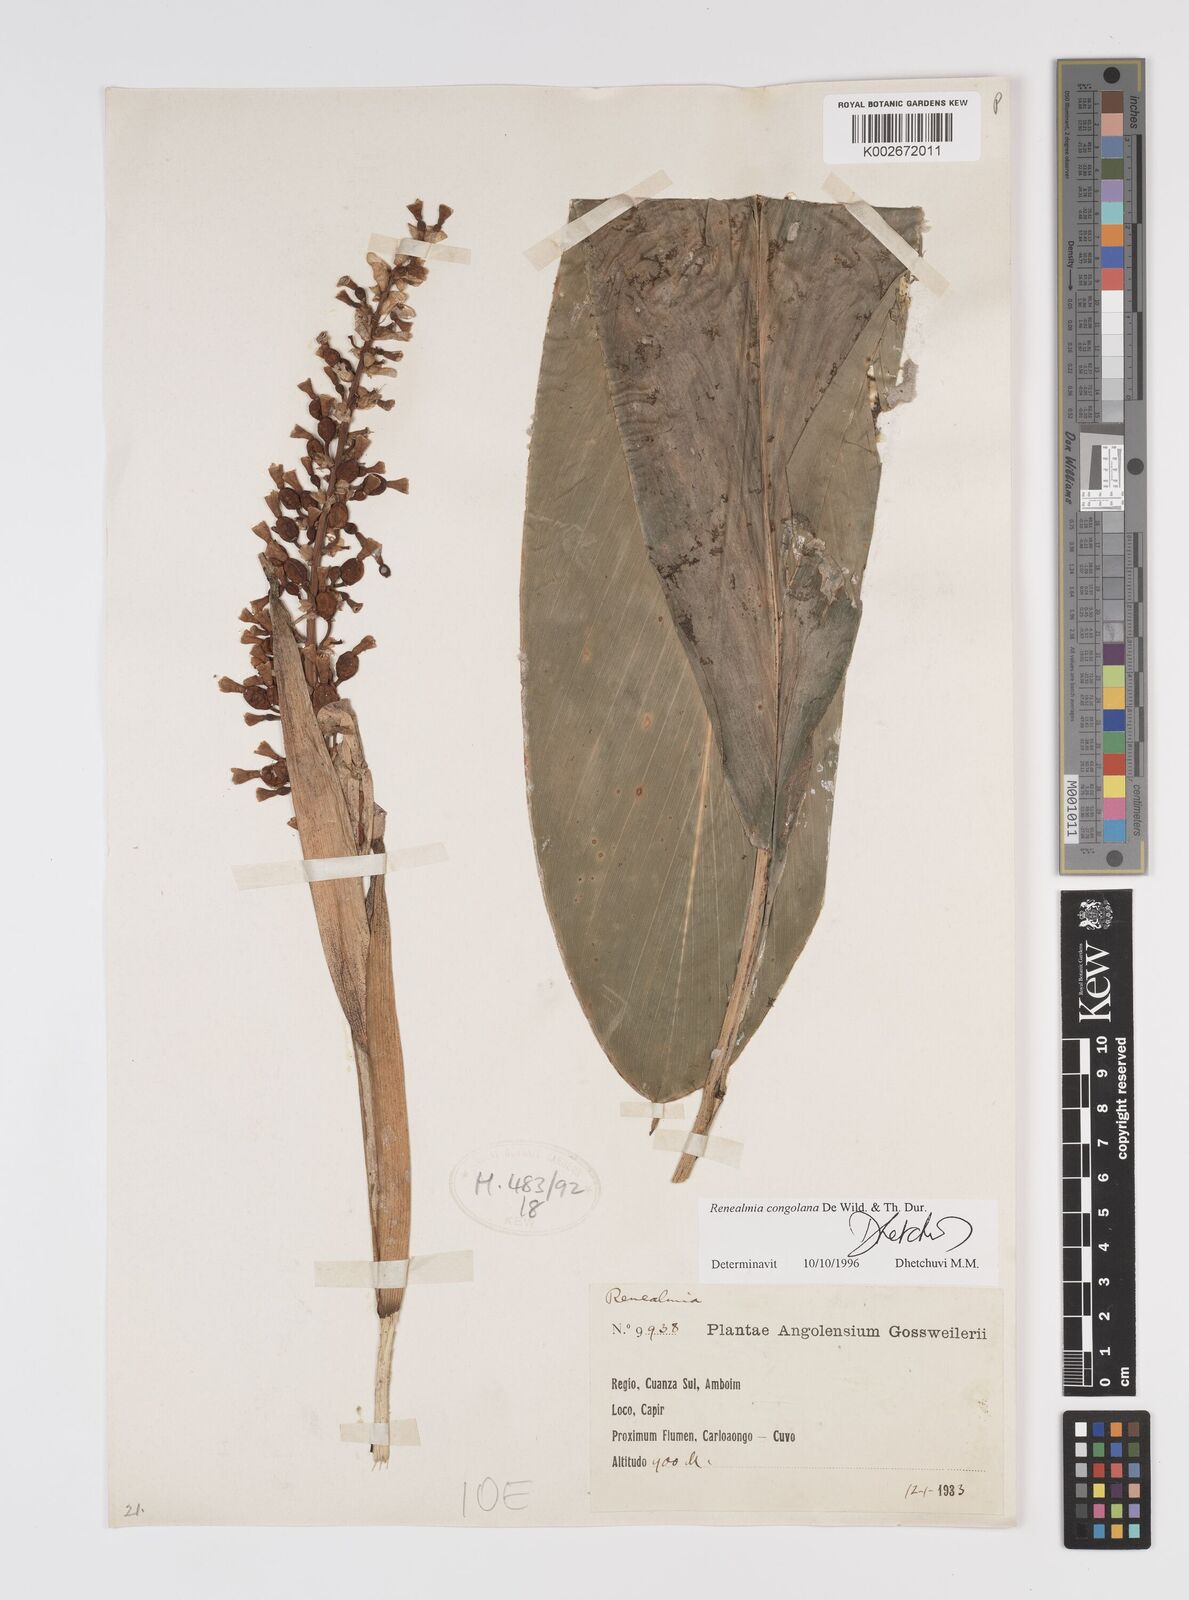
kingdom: Plantae
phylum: Tracheophyta
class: Liliopsida
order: Zingiberales
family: Zingiberaceae
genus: Renealmia
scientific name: Renealmia congolana
